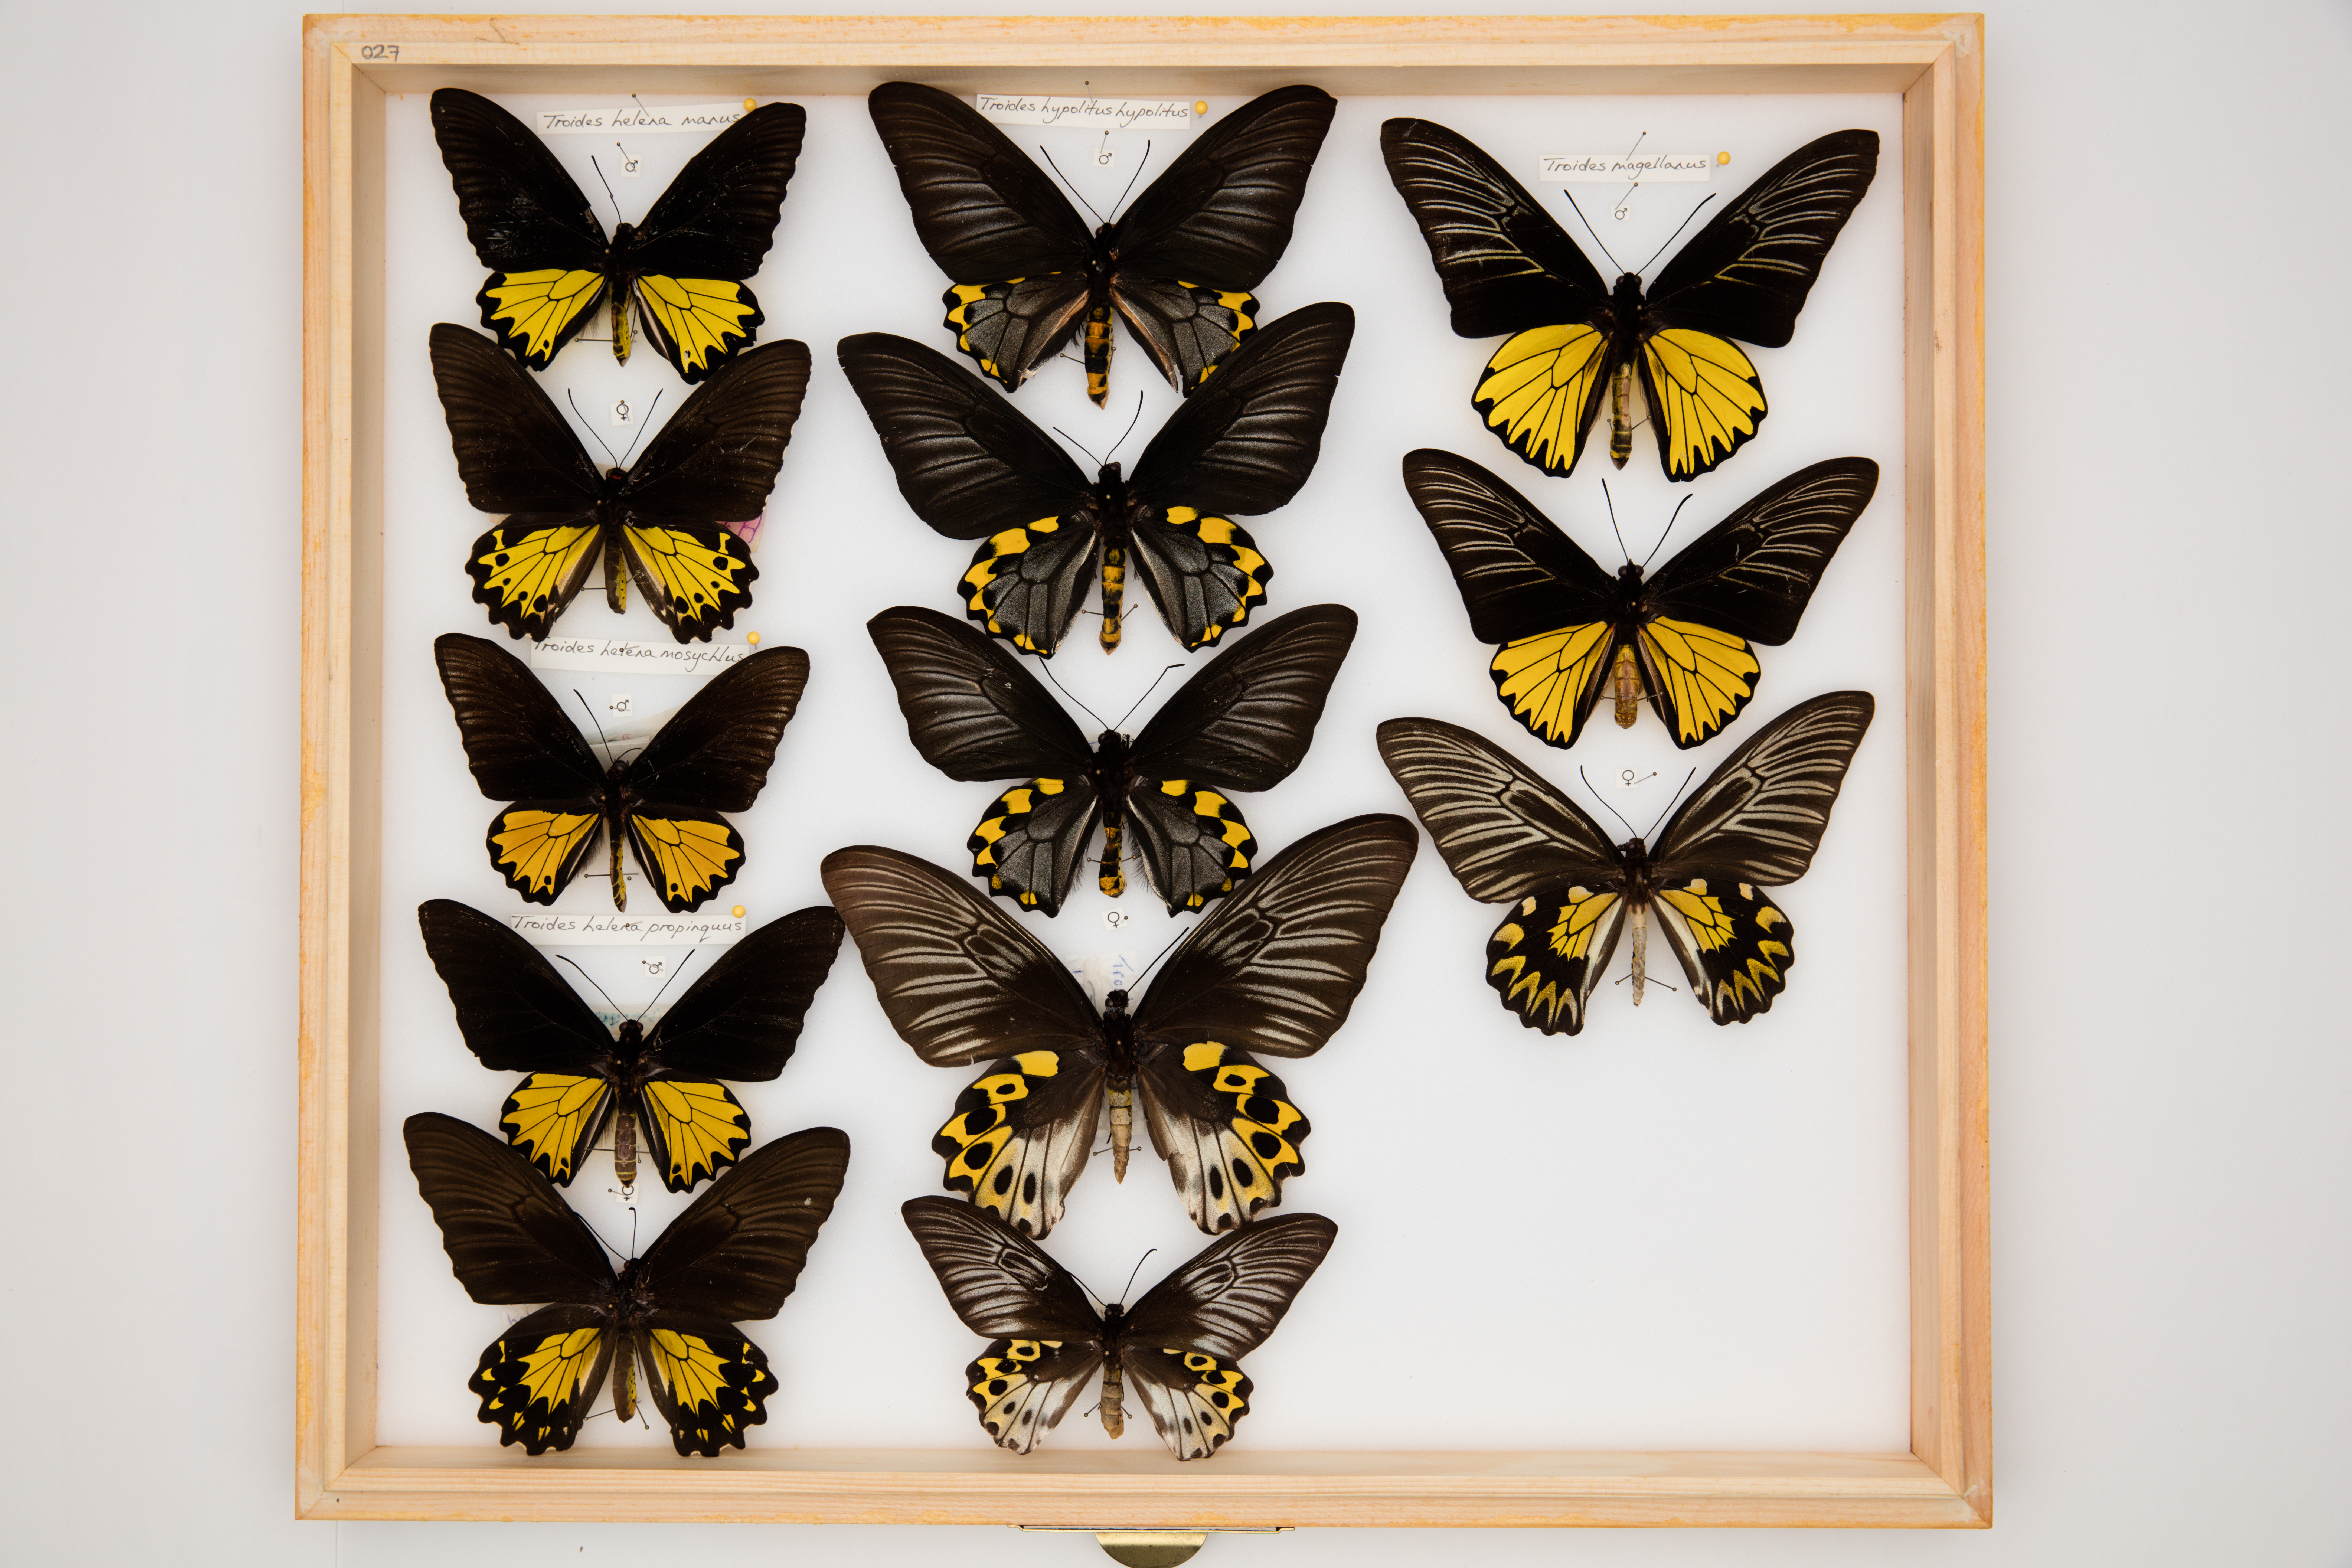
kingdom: Animalia
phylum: Arthropoda
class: Insecta
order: Lepidoptera
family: Papilionidae
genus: Troides
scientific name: Troides helena
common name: Common birdwing
